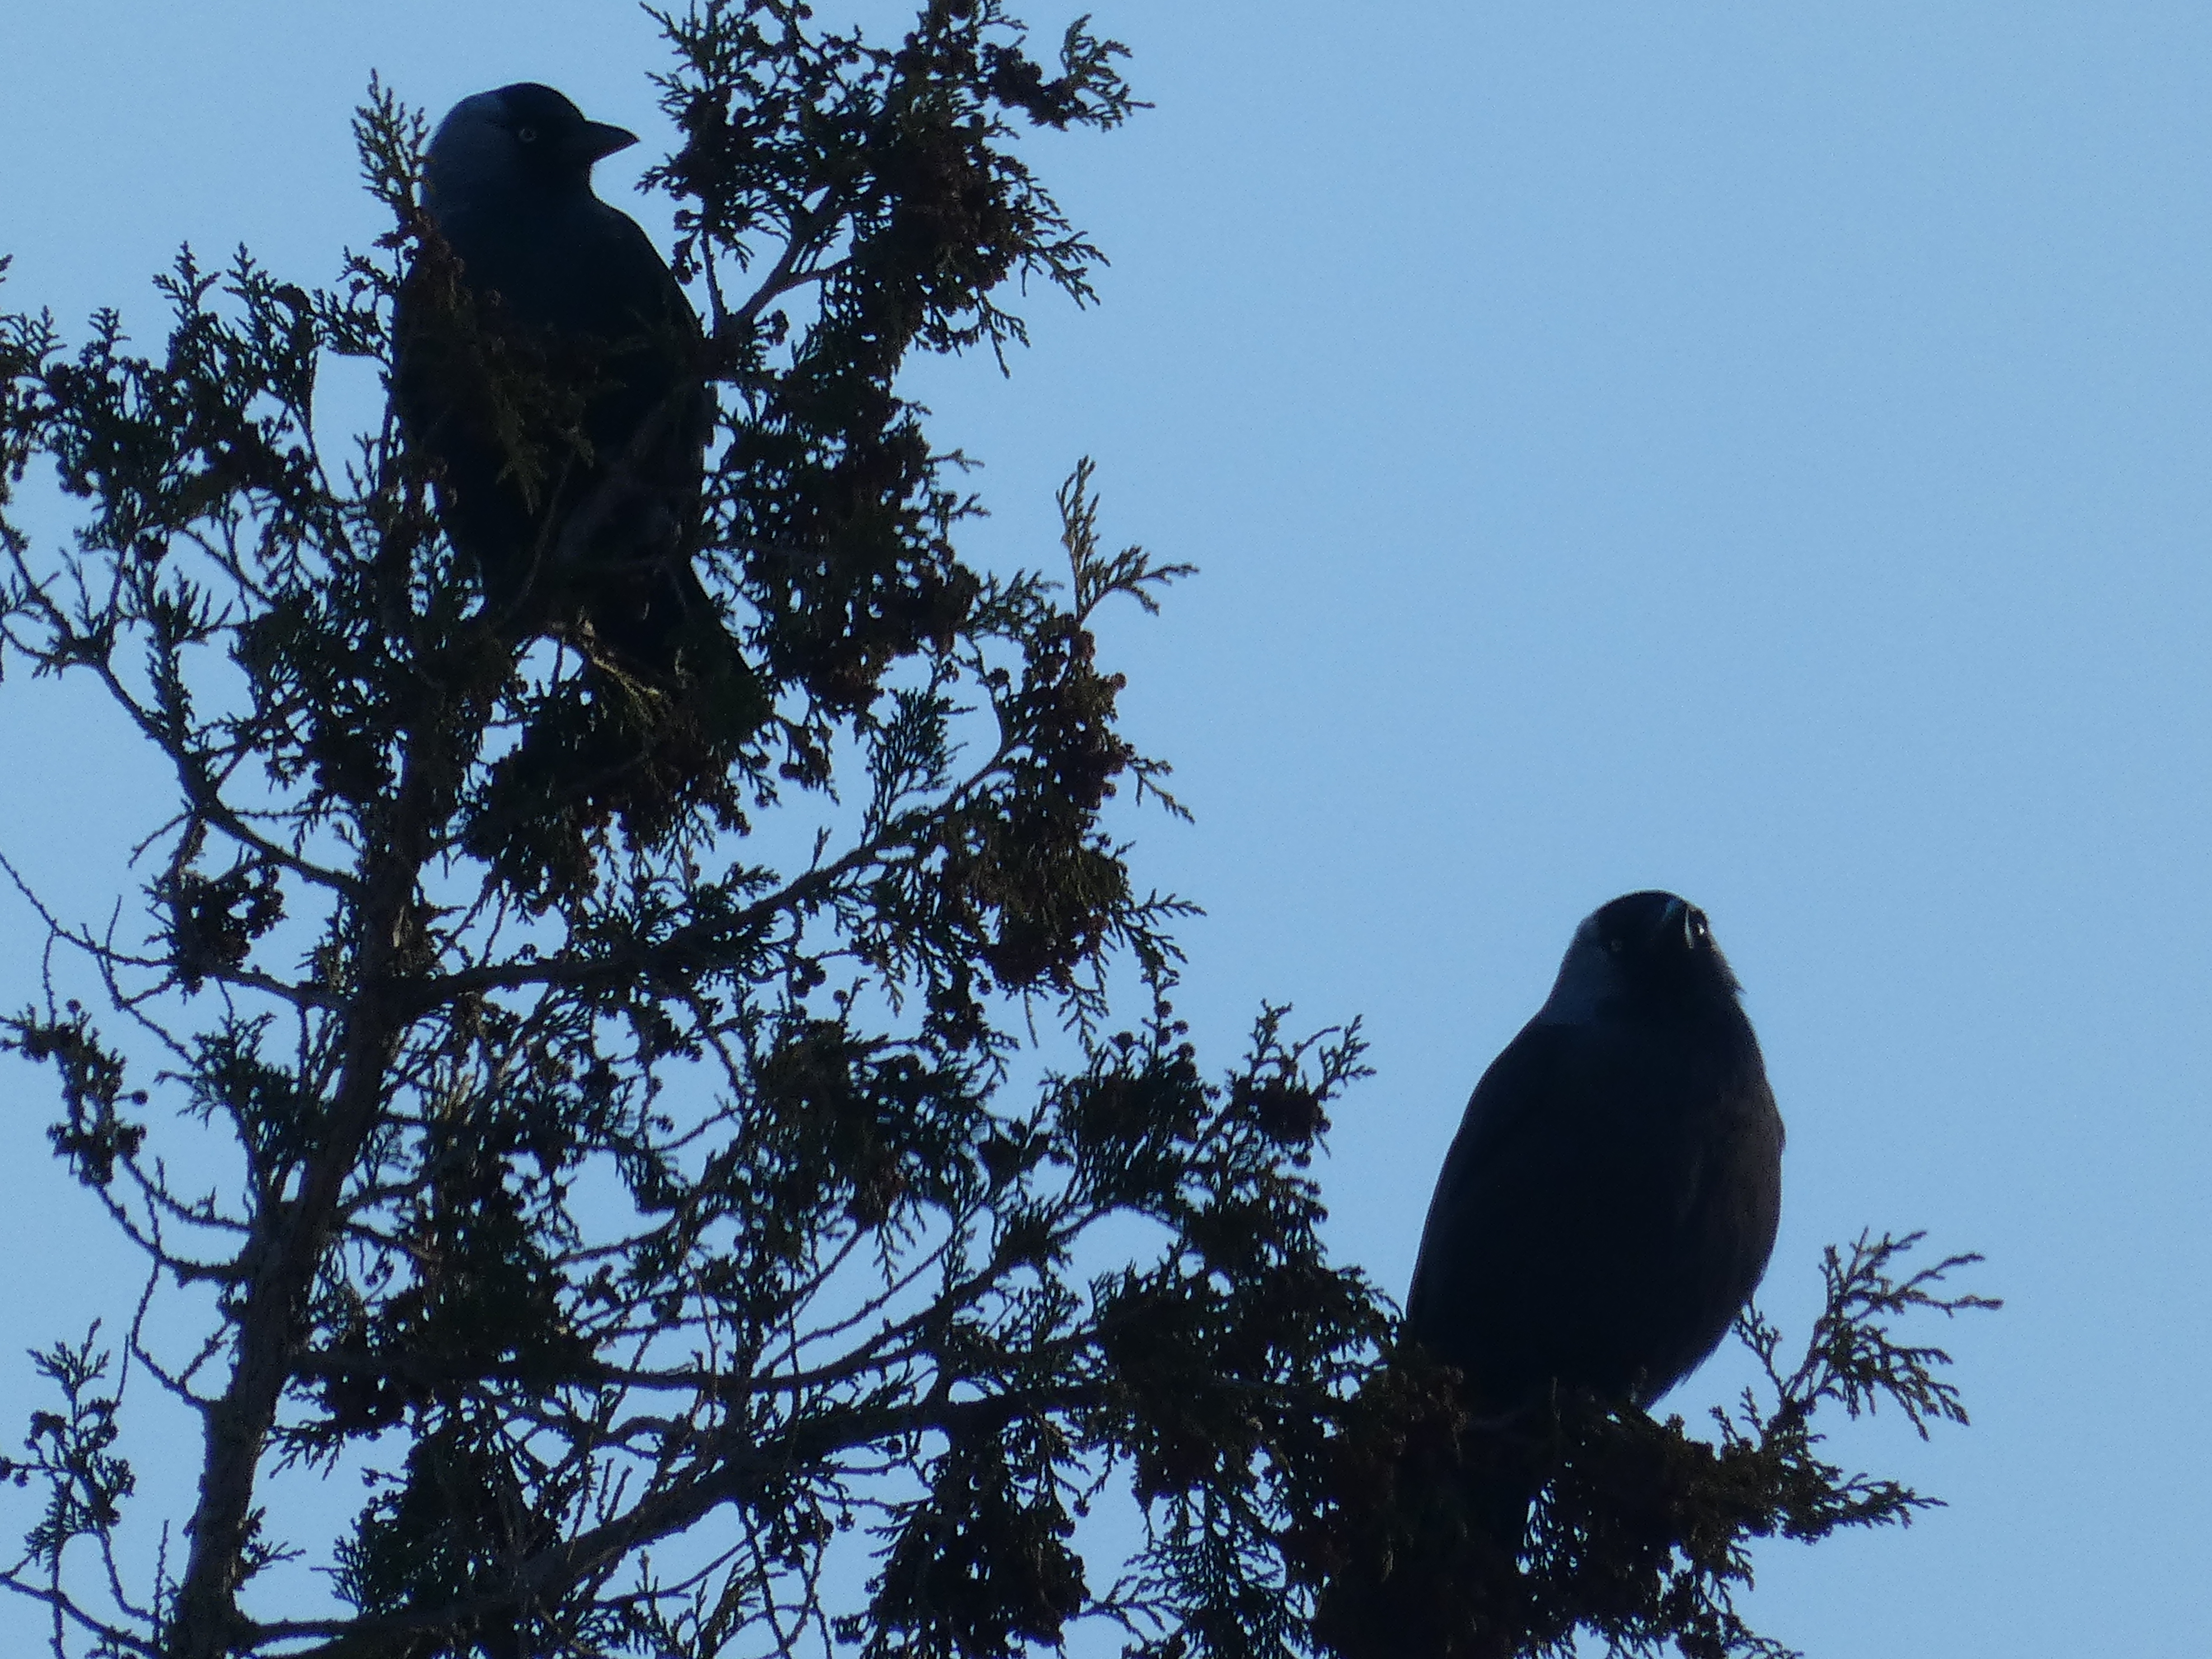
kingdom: Animalia
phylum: Chordata
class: Aves
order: Passeriformes
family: Corvidae
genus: Coloeus
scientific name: Coloeus monedula
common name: Allike
